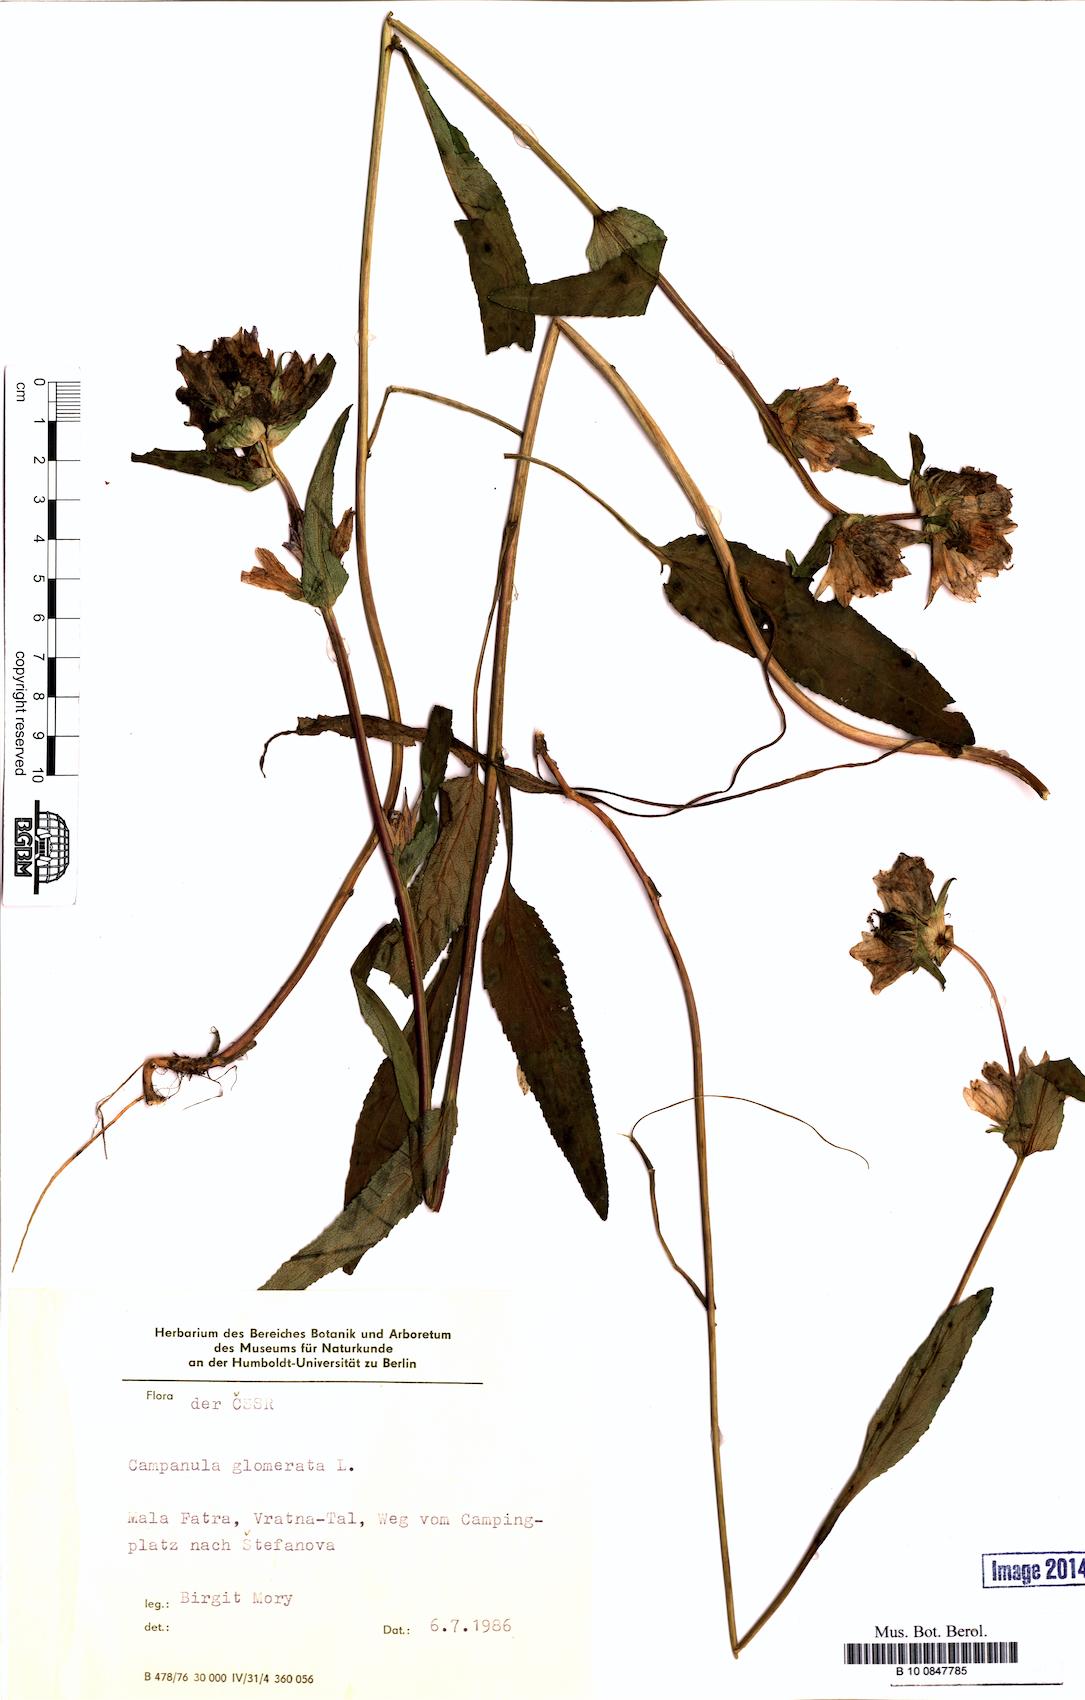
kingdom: Plantae
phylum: Tracheophyta
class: Magnoliopsida
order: Asterales
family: Campanulaceae
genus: Campanula
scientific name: Campanula glomerata
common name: Clustered bellflower
